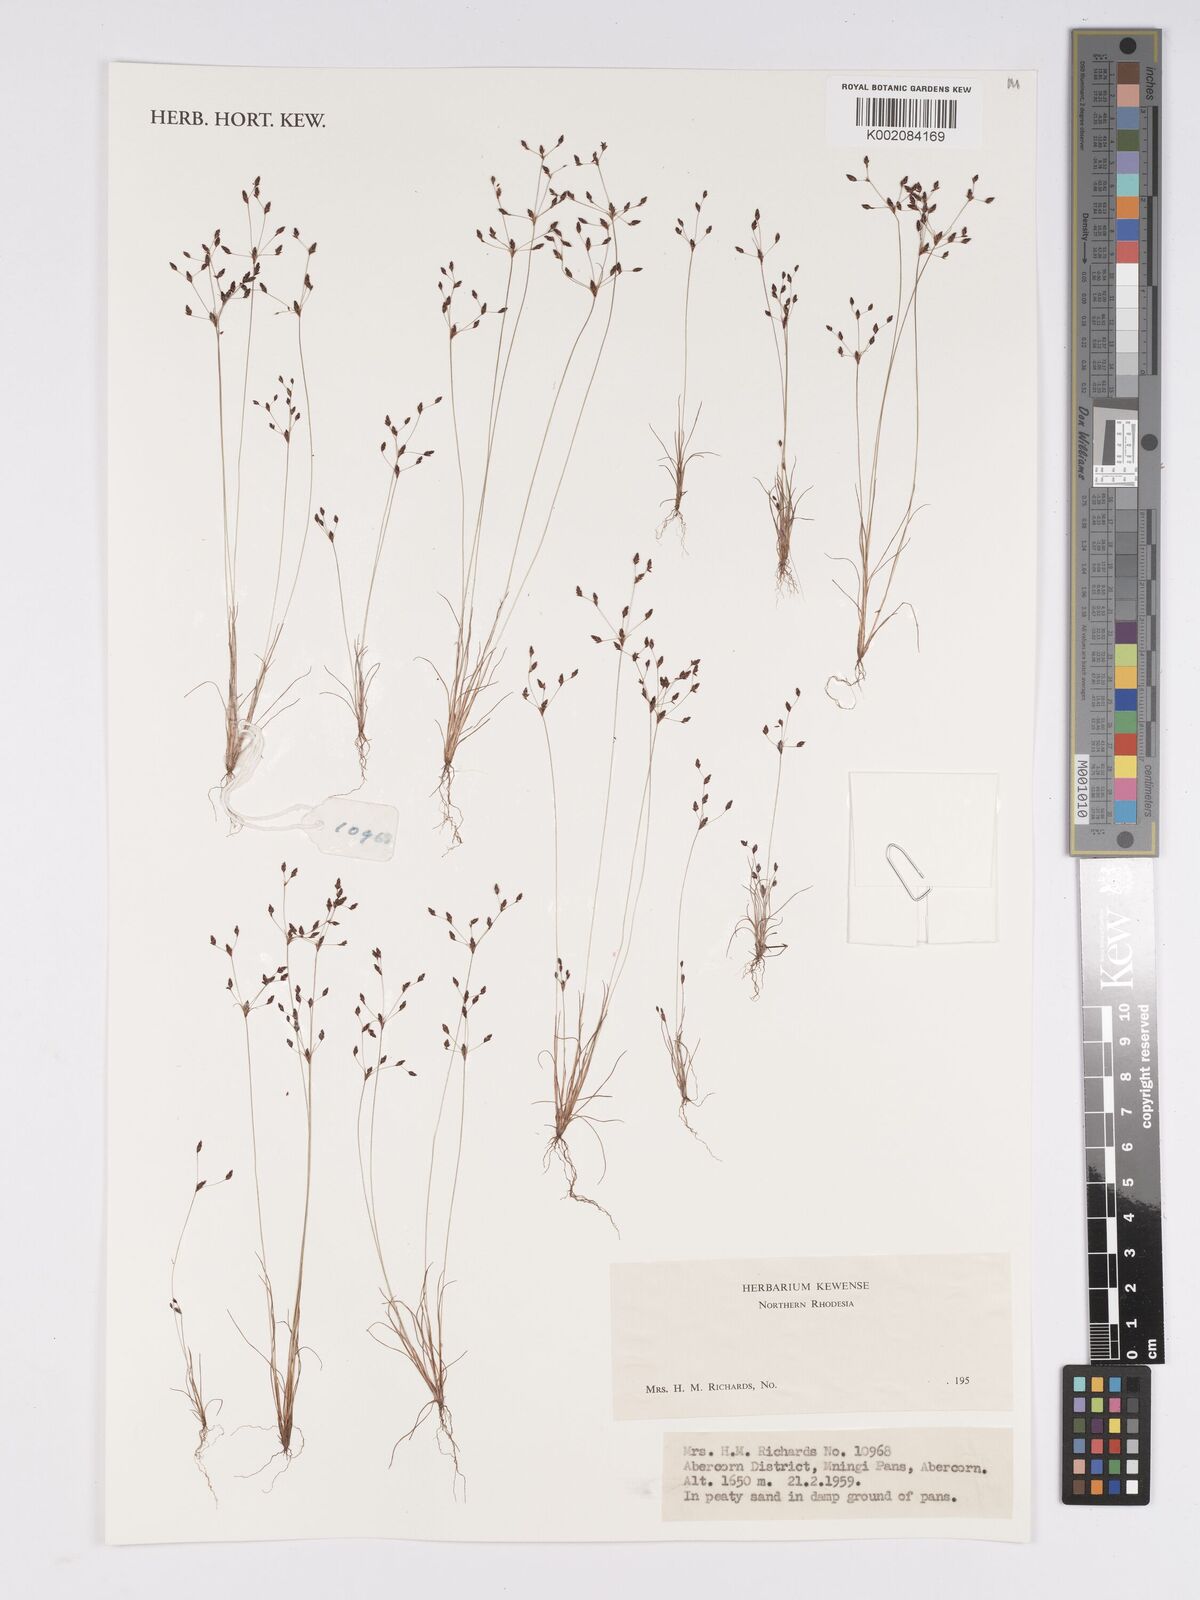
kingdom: Plantae
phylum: Tracheophyta
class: Liliopsida
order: Poales
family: Cyperaceae
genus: Bulbostylis
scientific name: Bulbostylis
